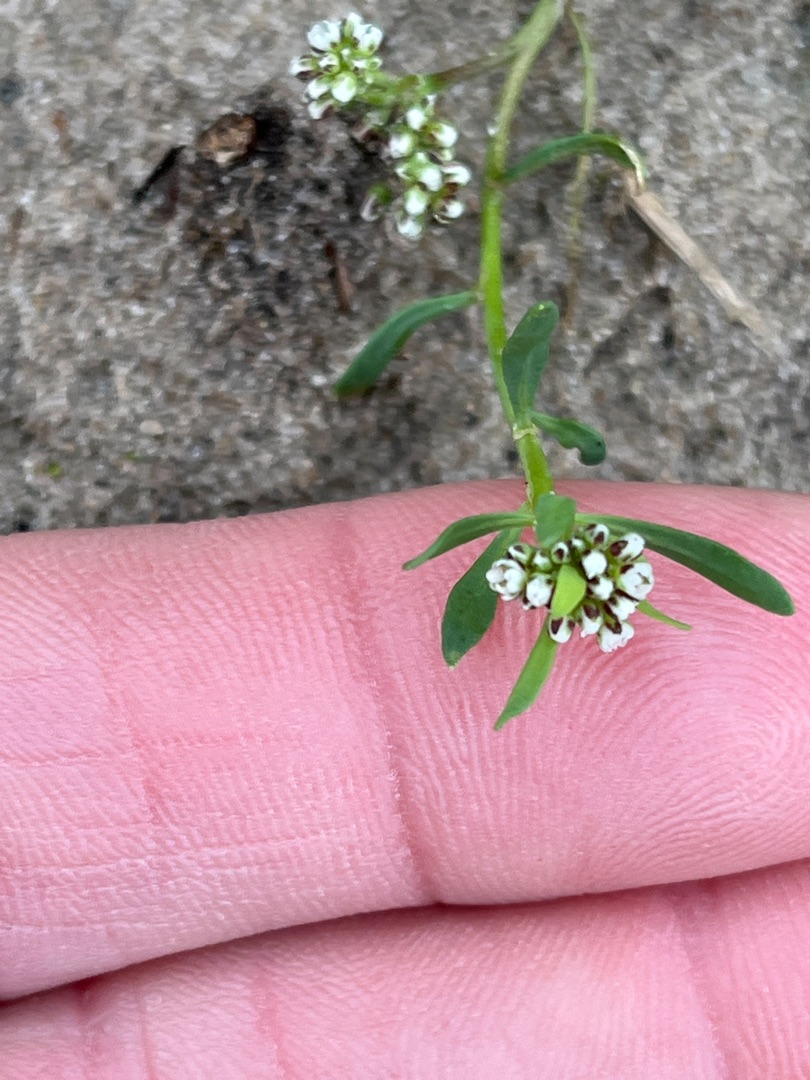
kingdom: Plantae
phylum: Tracheophyta
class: Magnoliopsida
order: Caryophyllales
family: Caryophyllaceae
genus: Corrigiola
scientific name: Corrigiola litoralis
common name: Skorem
